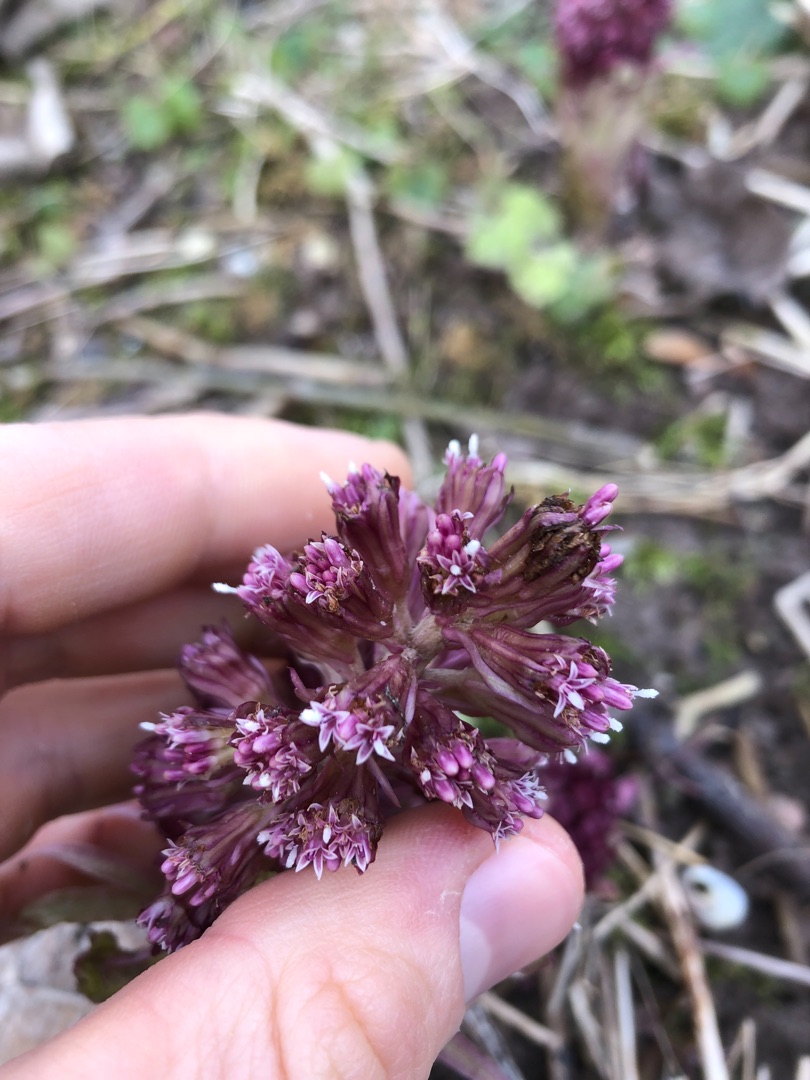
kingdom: Plantae
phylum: Tracheophyta
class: Magnoliopsida
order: Asterales
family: Asteraceae
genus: Petasites
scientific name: Petasites hybridus
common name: Rød hestehov
